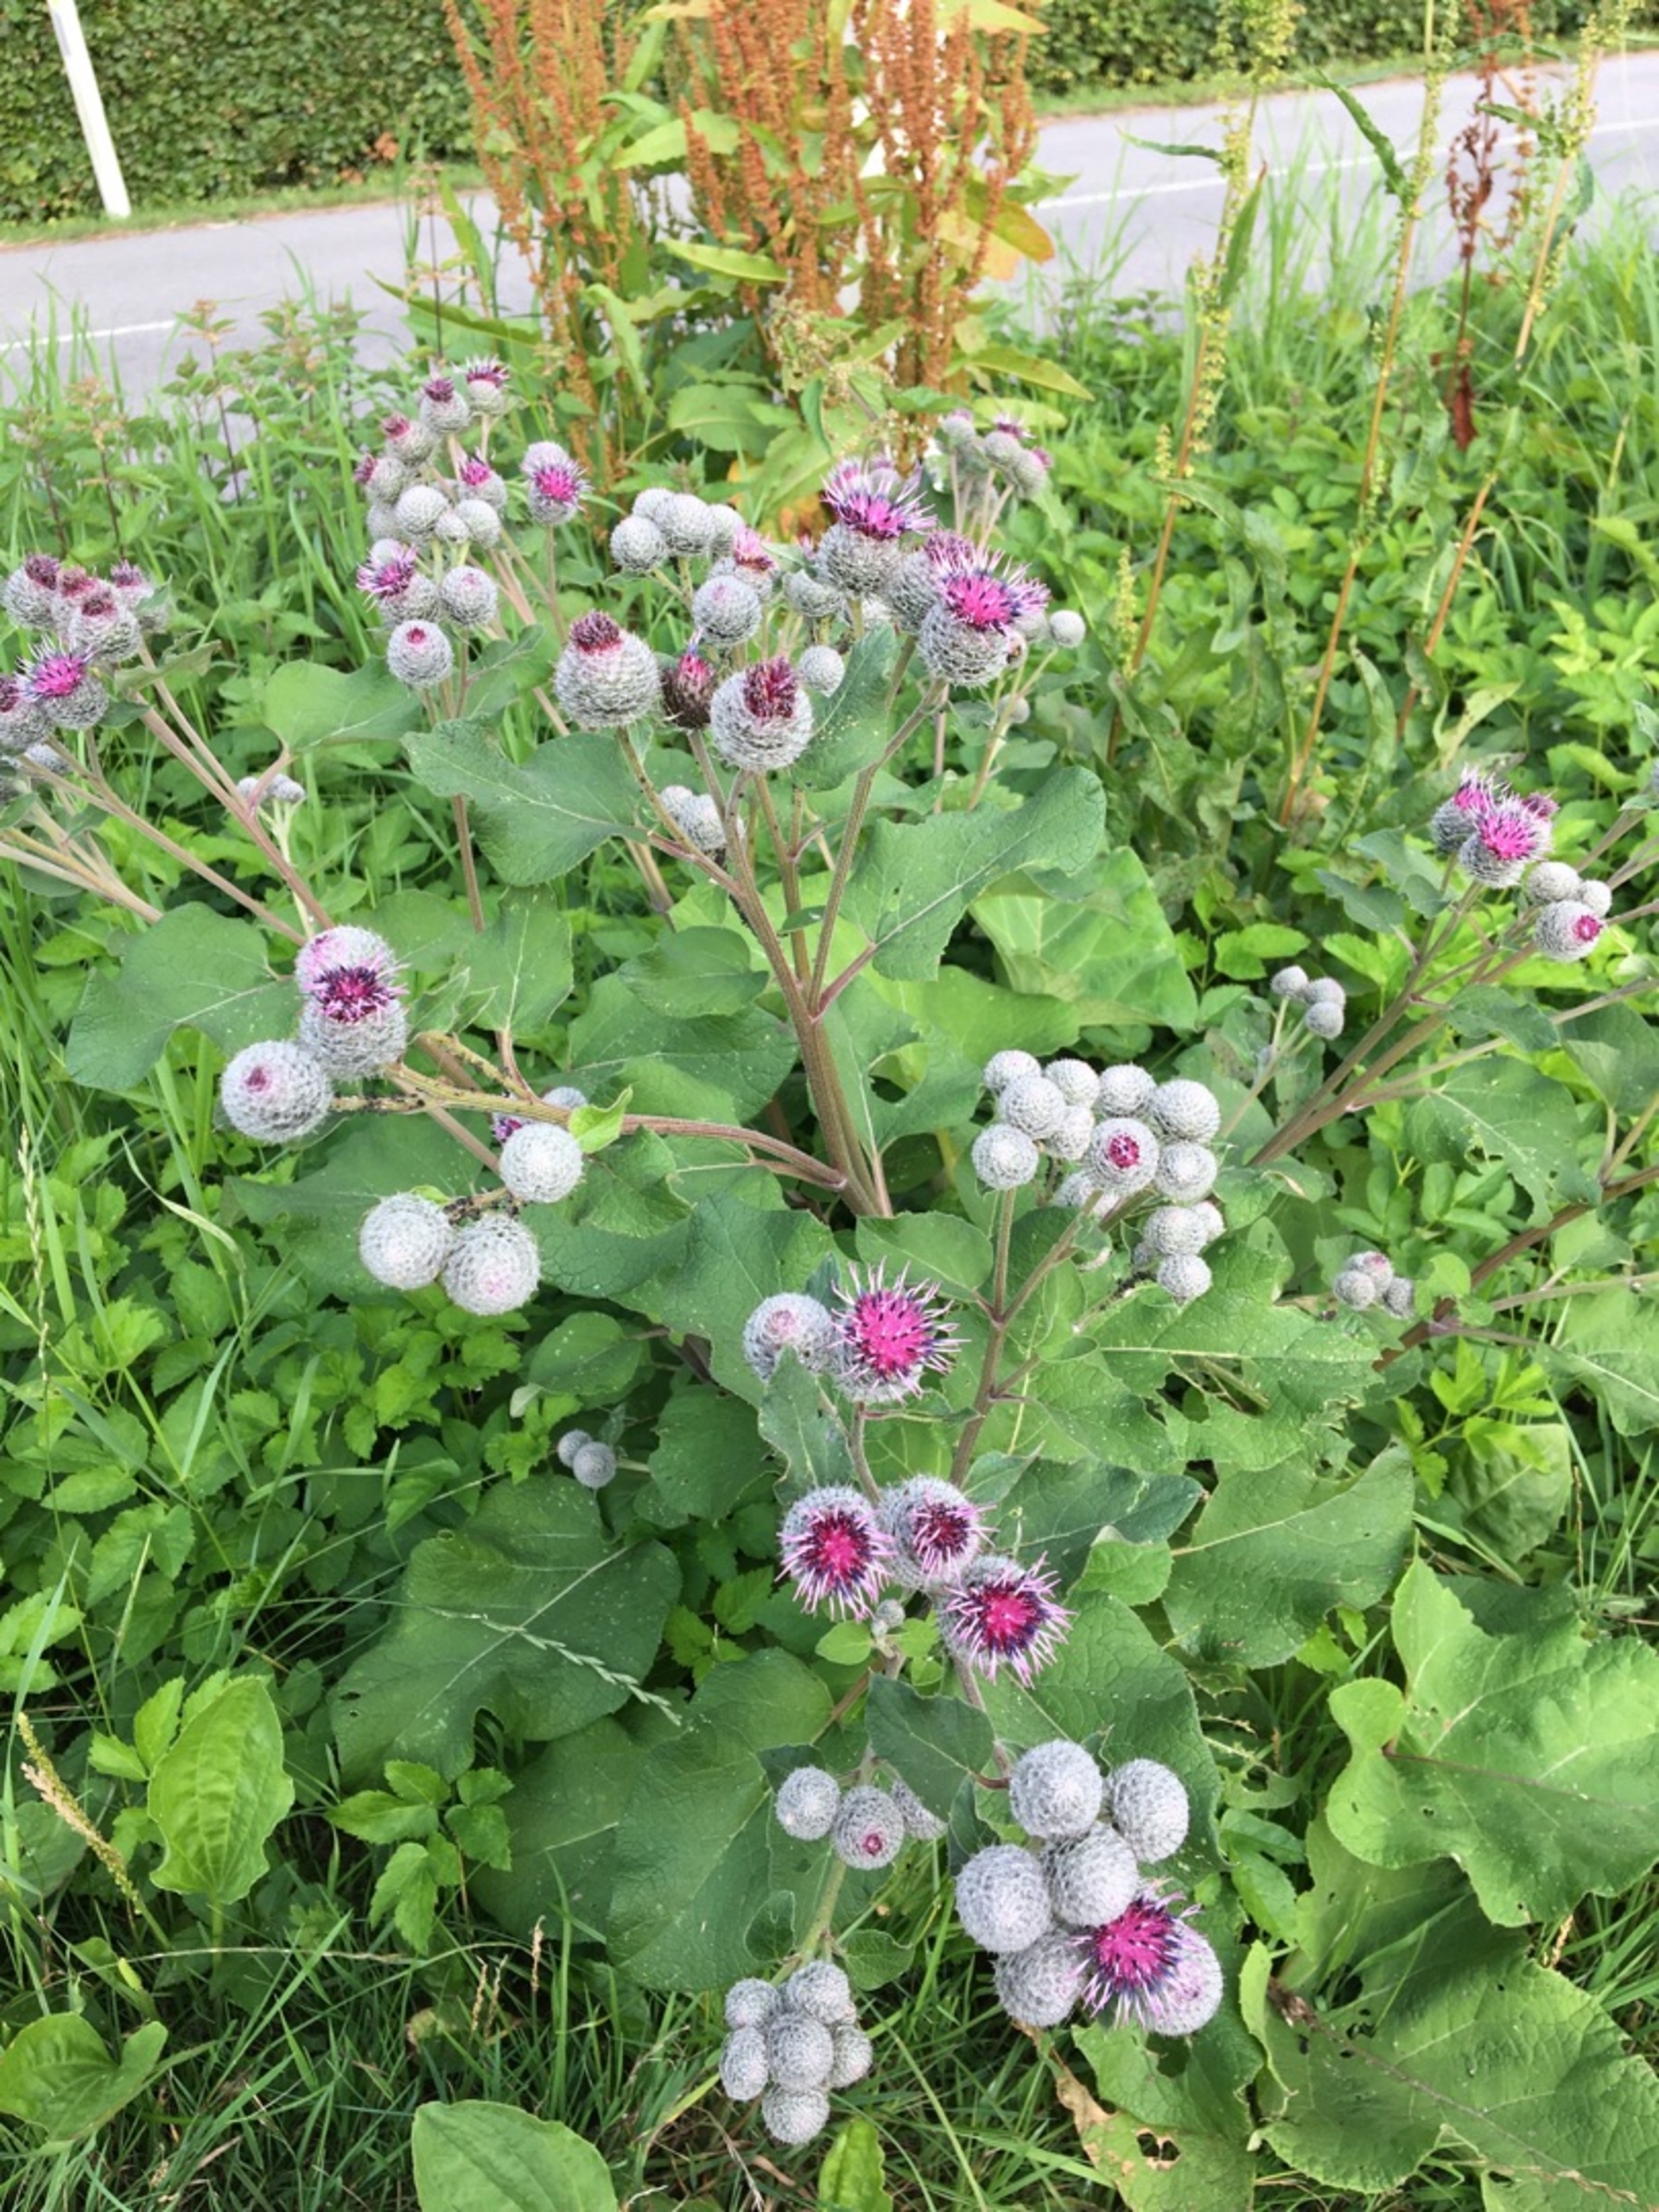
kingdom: Plantae
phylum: Tracheophyta
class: Magnoliopsida
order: Asterales
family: Asteraceae
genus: Arctium
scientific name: Arctium tomentosum
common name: Filtet burre
